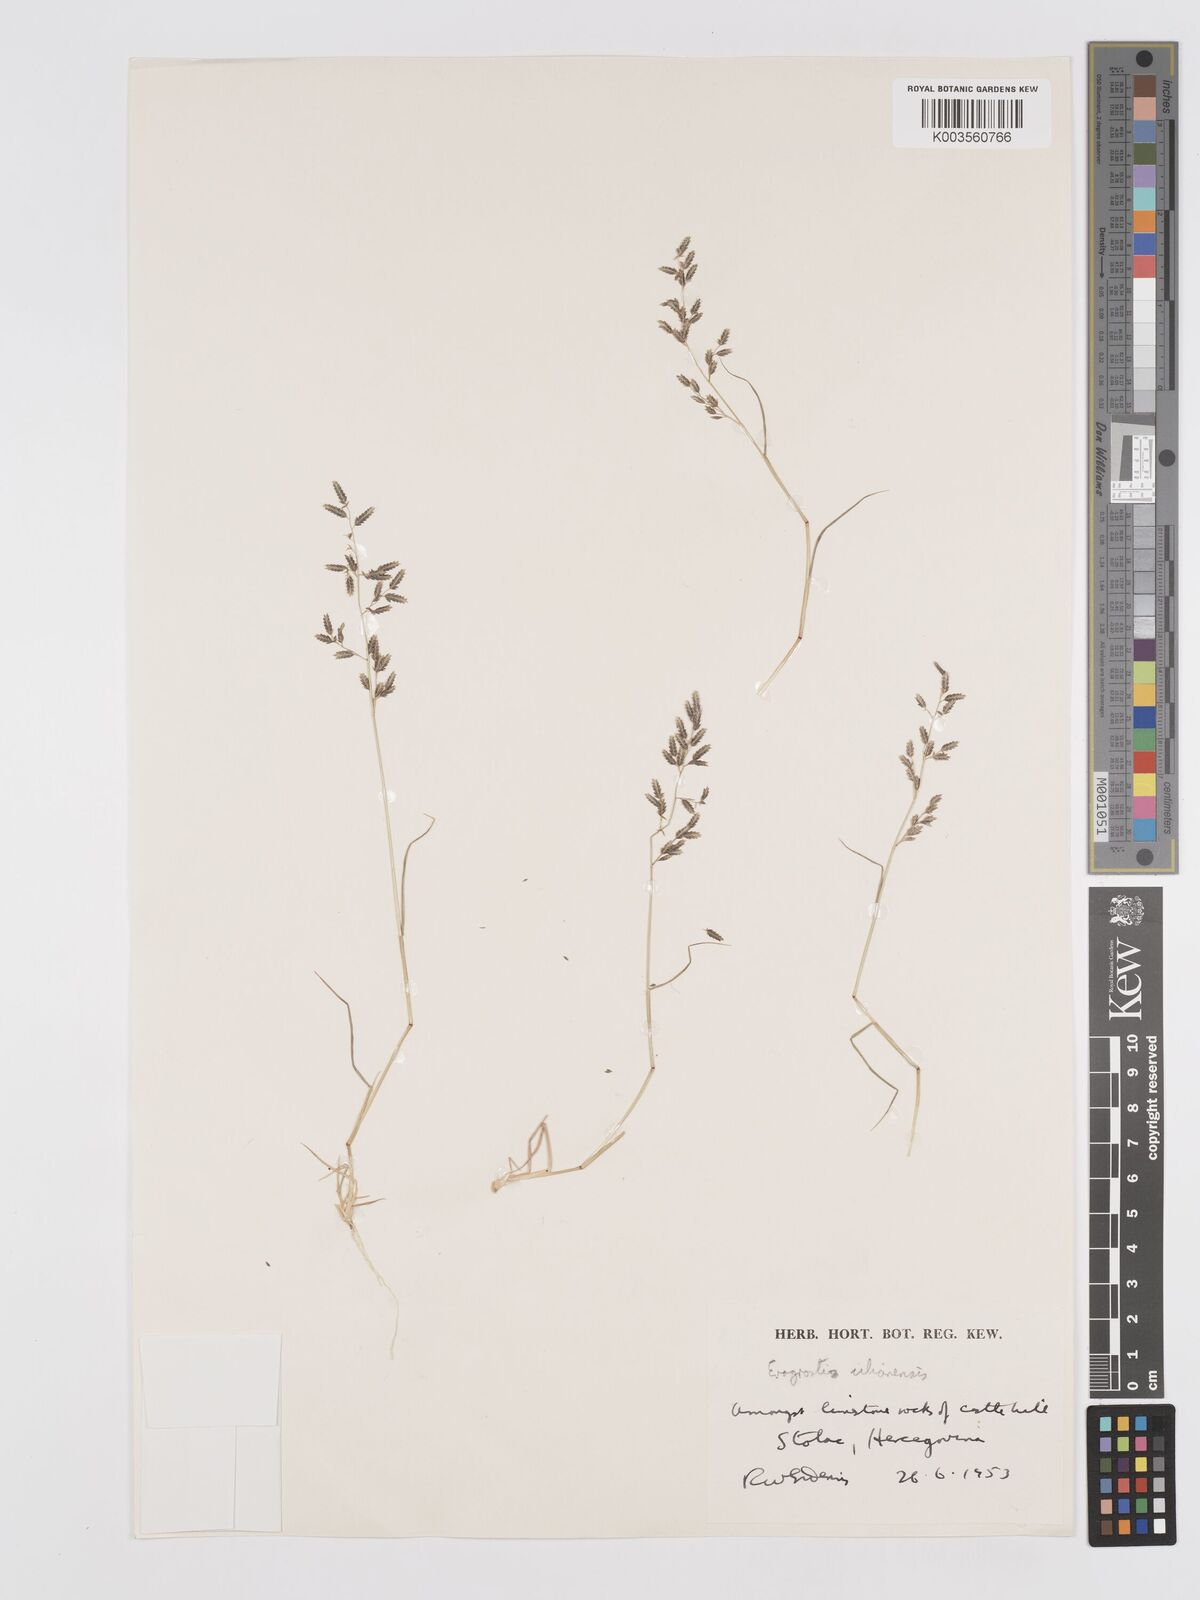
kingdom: Plantae
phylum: Tracheophyta
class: Liliopsida
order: Poales
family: Poaceae
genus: Eragrostis
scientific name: Eragrostis minor
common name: Small love-grass
